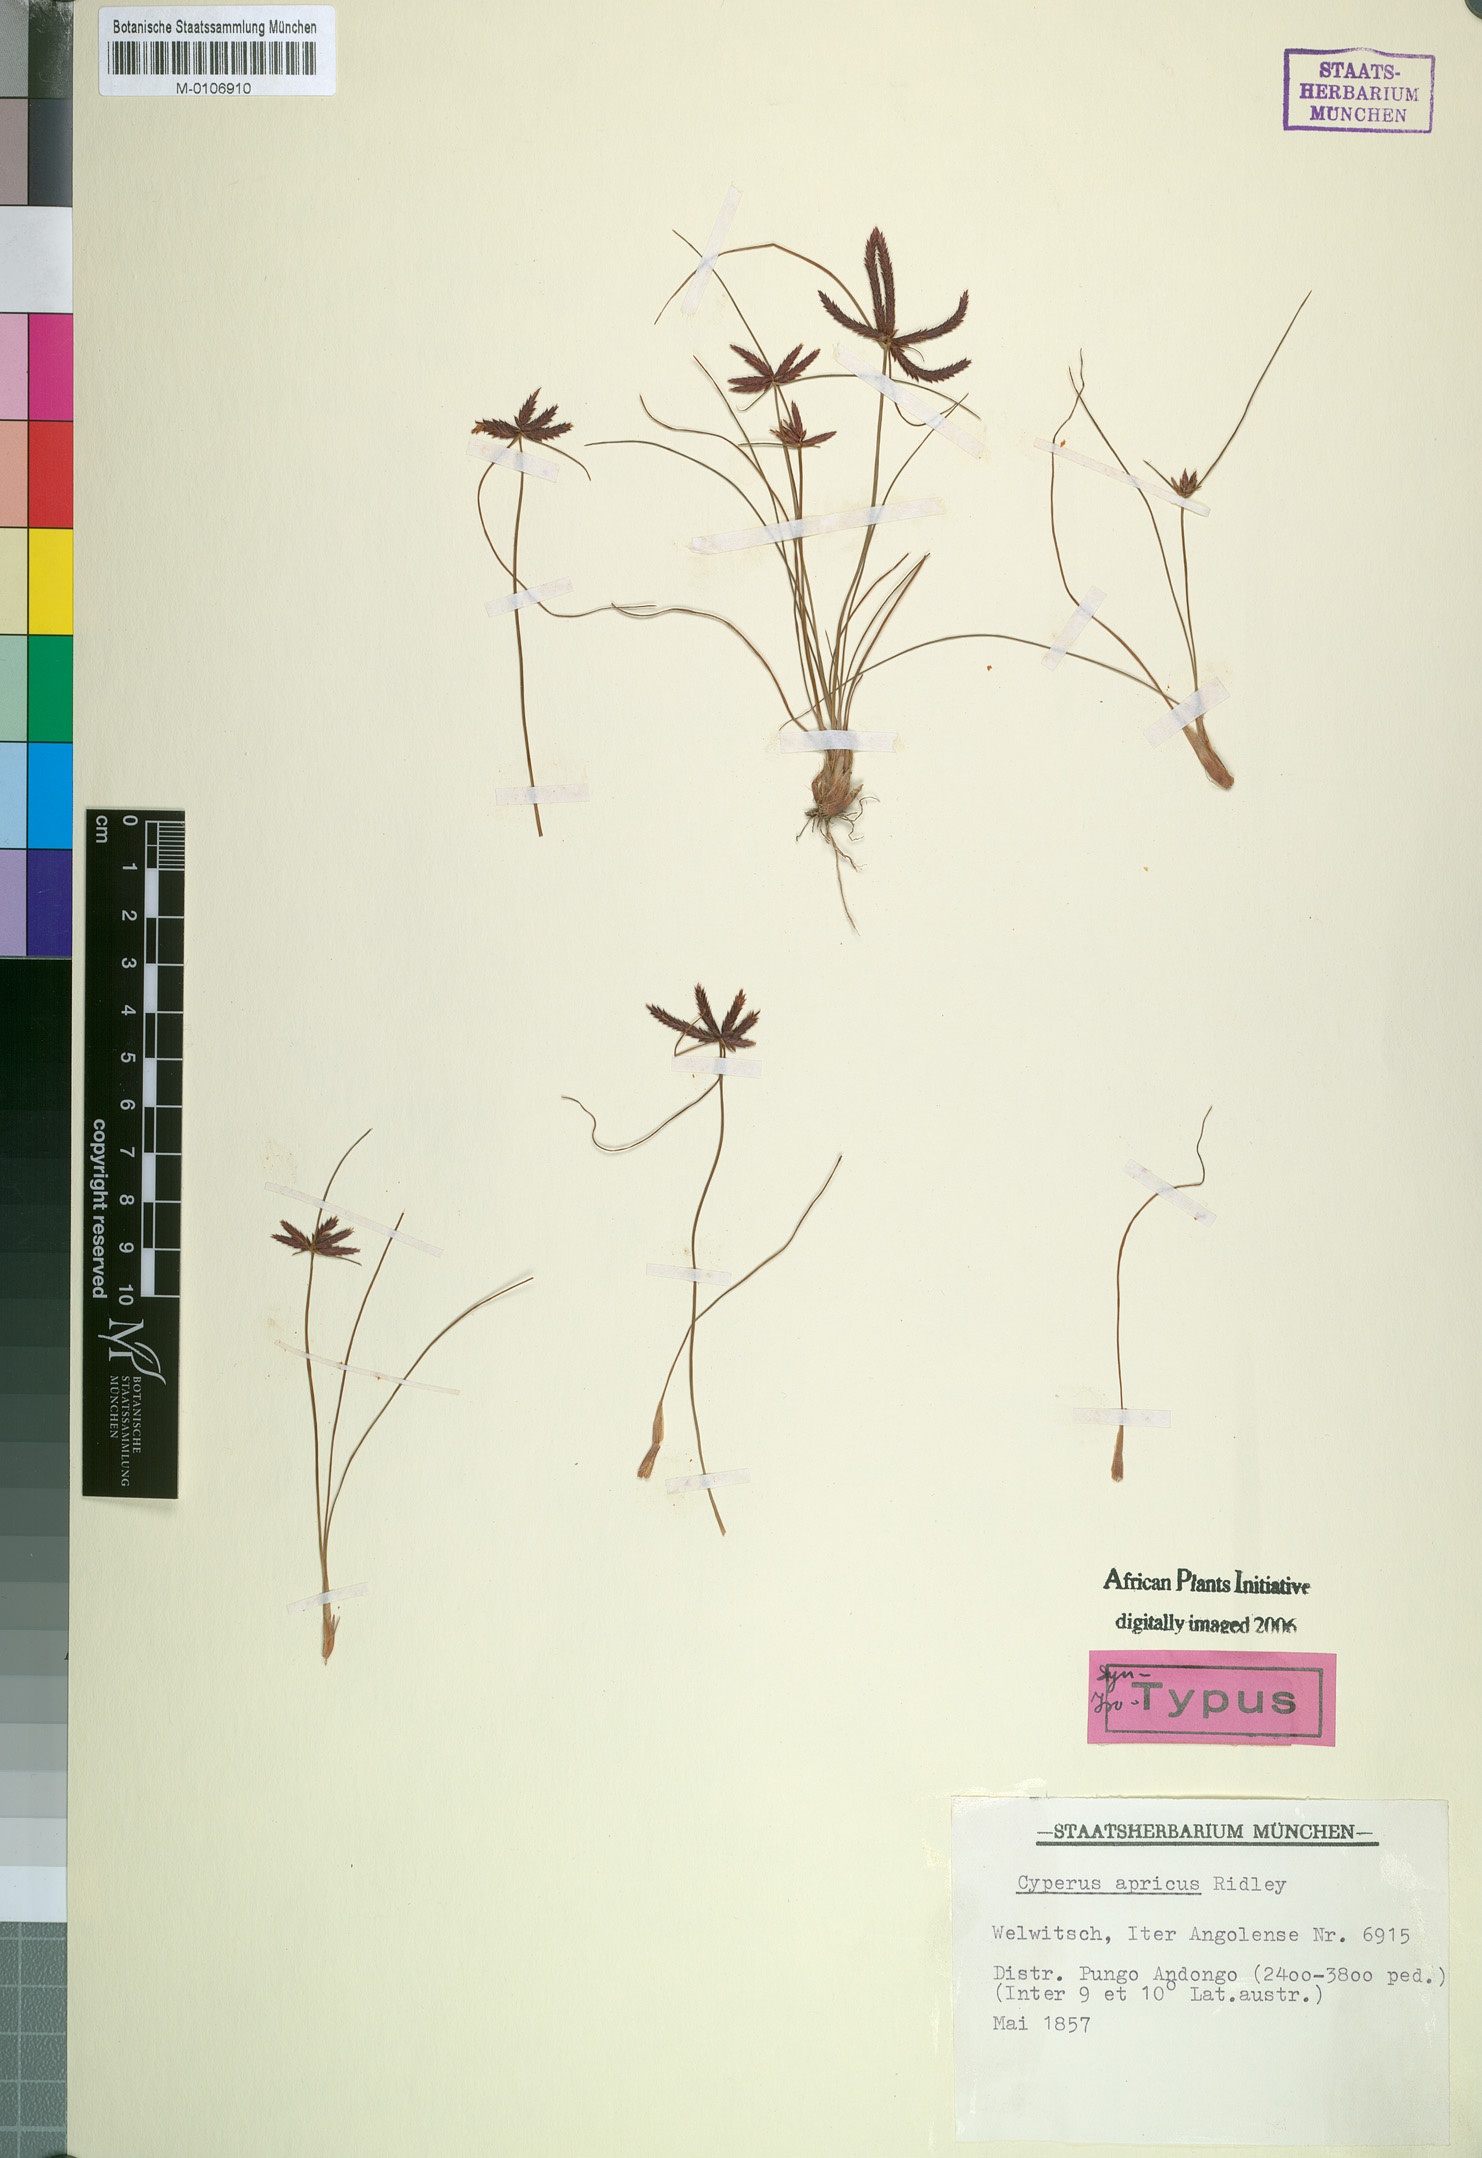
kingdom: Plantae
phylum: Tracheophyta
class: Liliopsida
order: Poales
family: Cyperaceae
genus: Cyperus
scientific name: Cyperus semitrifidus
